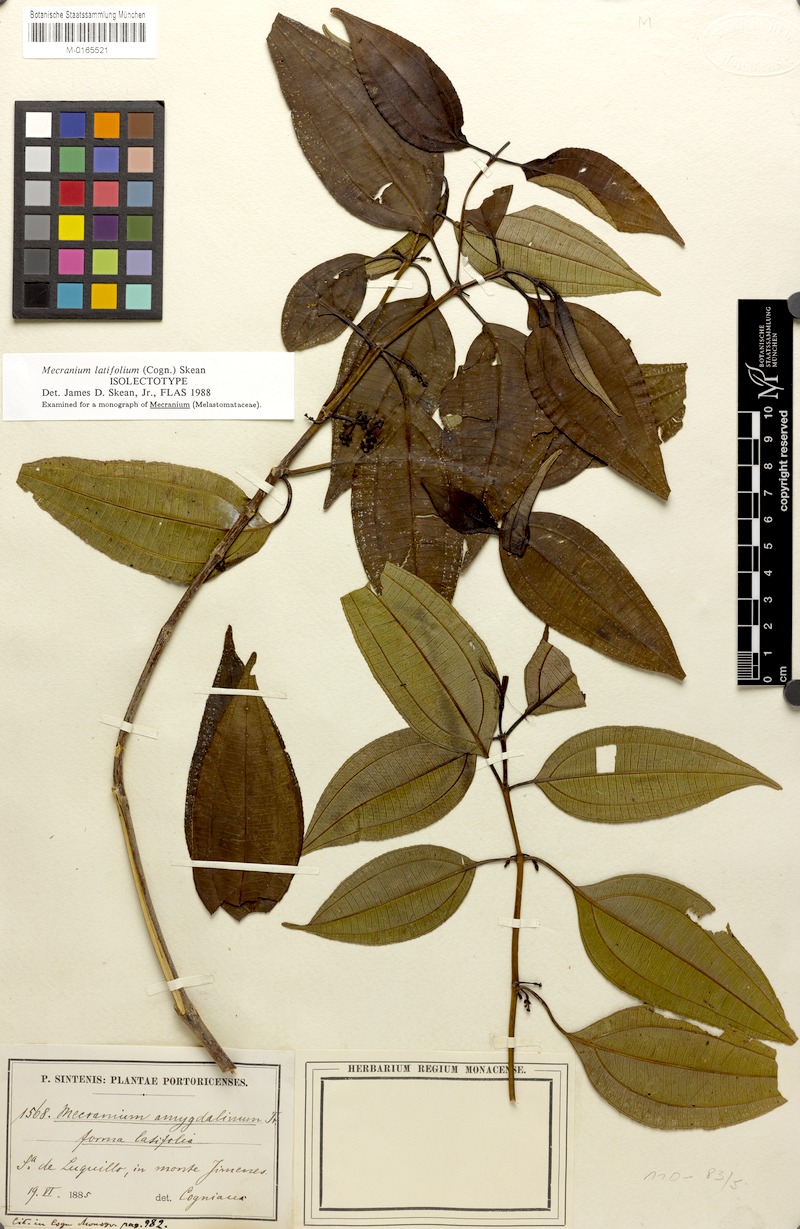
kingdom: Plantae
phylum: Tracheophyta
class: Magnoliopsida
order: Myrtales
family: Melastomataceae
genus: Miconia
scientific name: Miconia borinquensis
